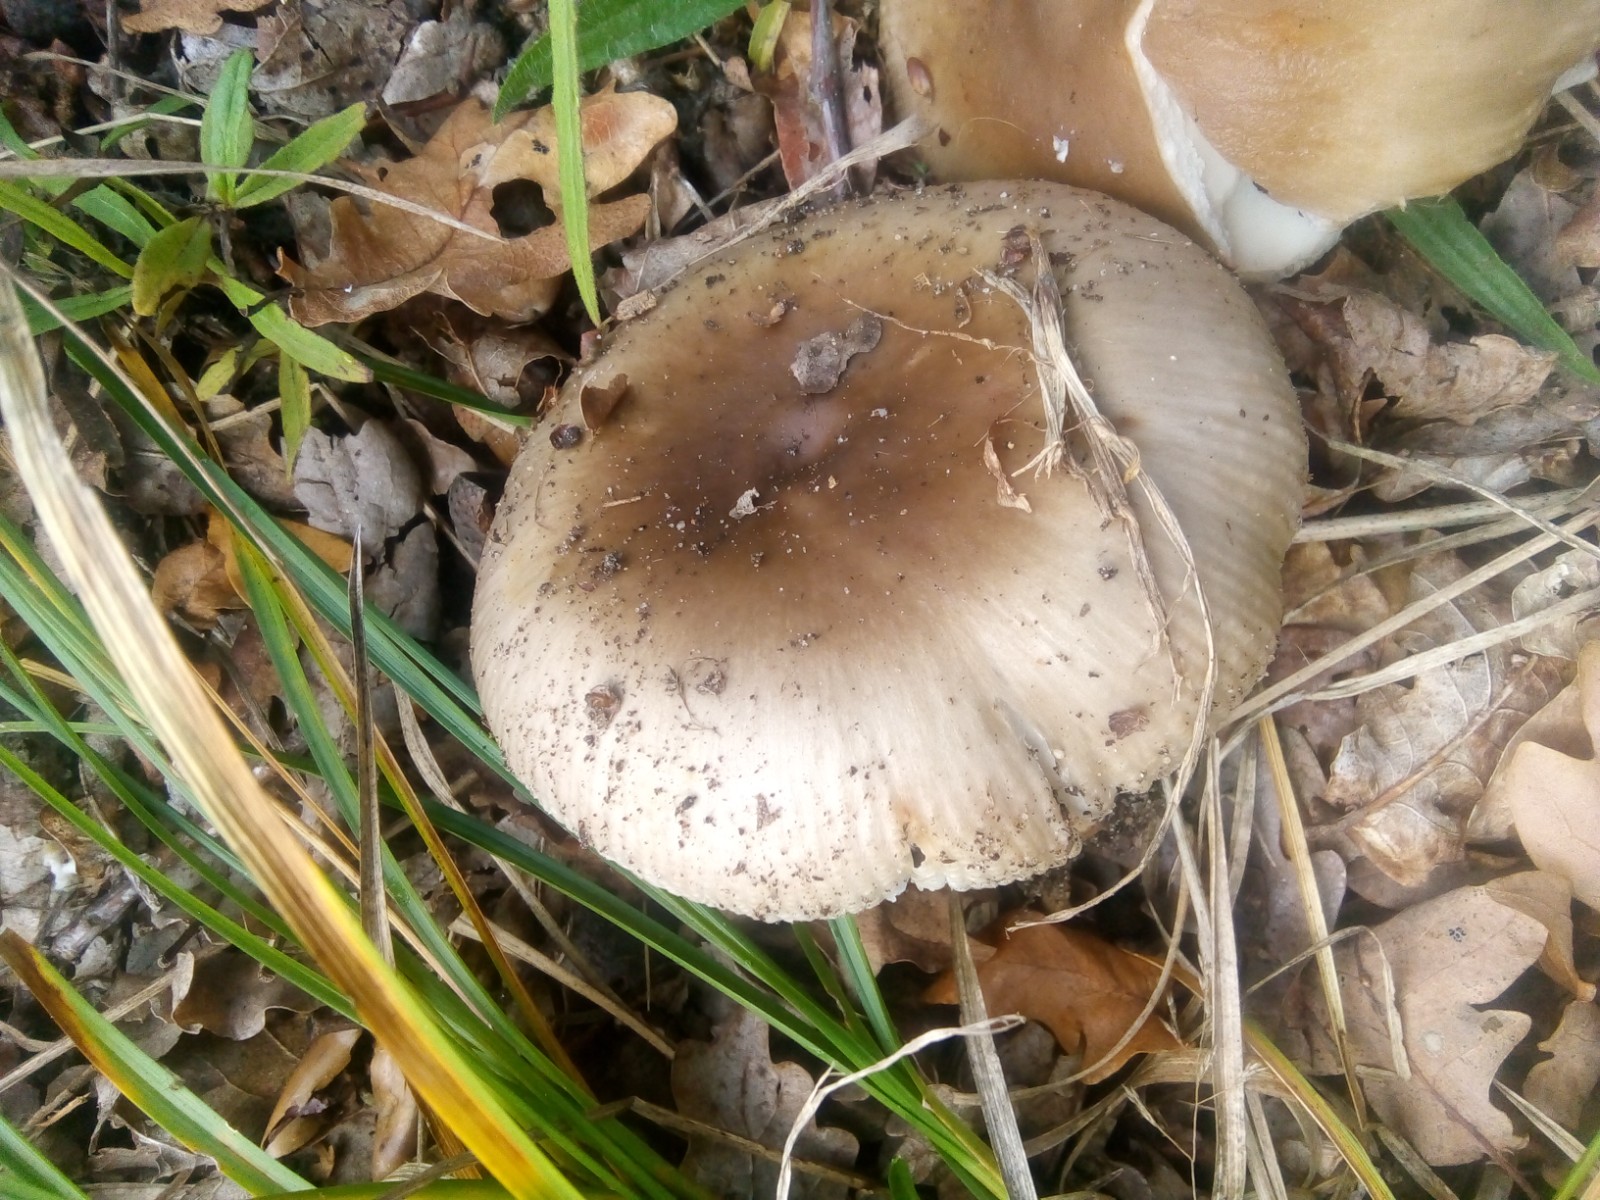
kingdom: Fungi
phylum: Basidiomycota
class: Agaricomycetes
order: Russulales
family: Russulaceae
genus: Russula
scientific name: Russula amoenolens
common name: skarp kam-skørhat
